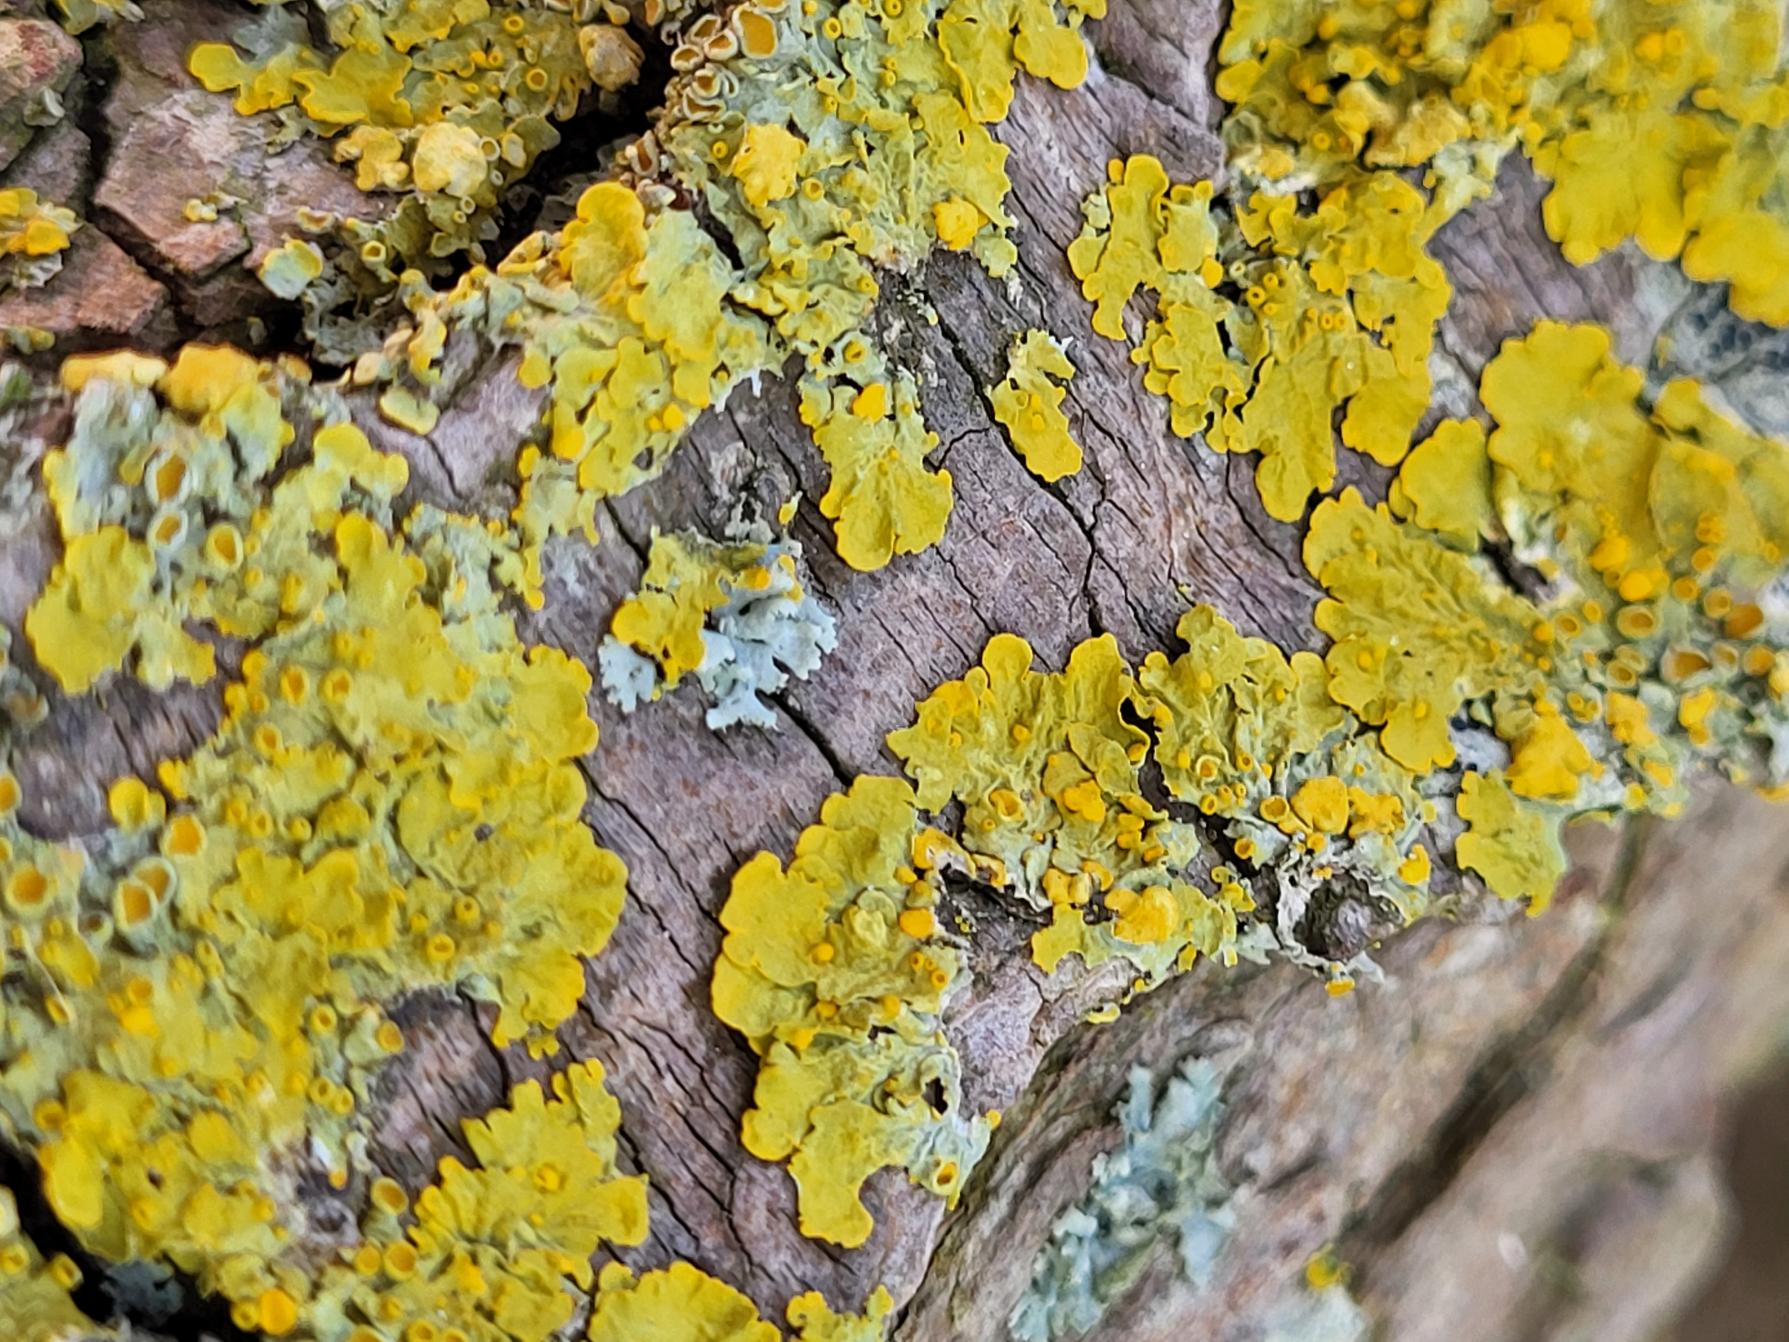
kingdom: Fungi
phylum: Ascomycota
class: Lecanoromycetes
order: Teloschistales
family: Teloschistaceae
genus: Xanthoria
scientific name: Xanthoria parietina
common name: Almindelig væggelav
